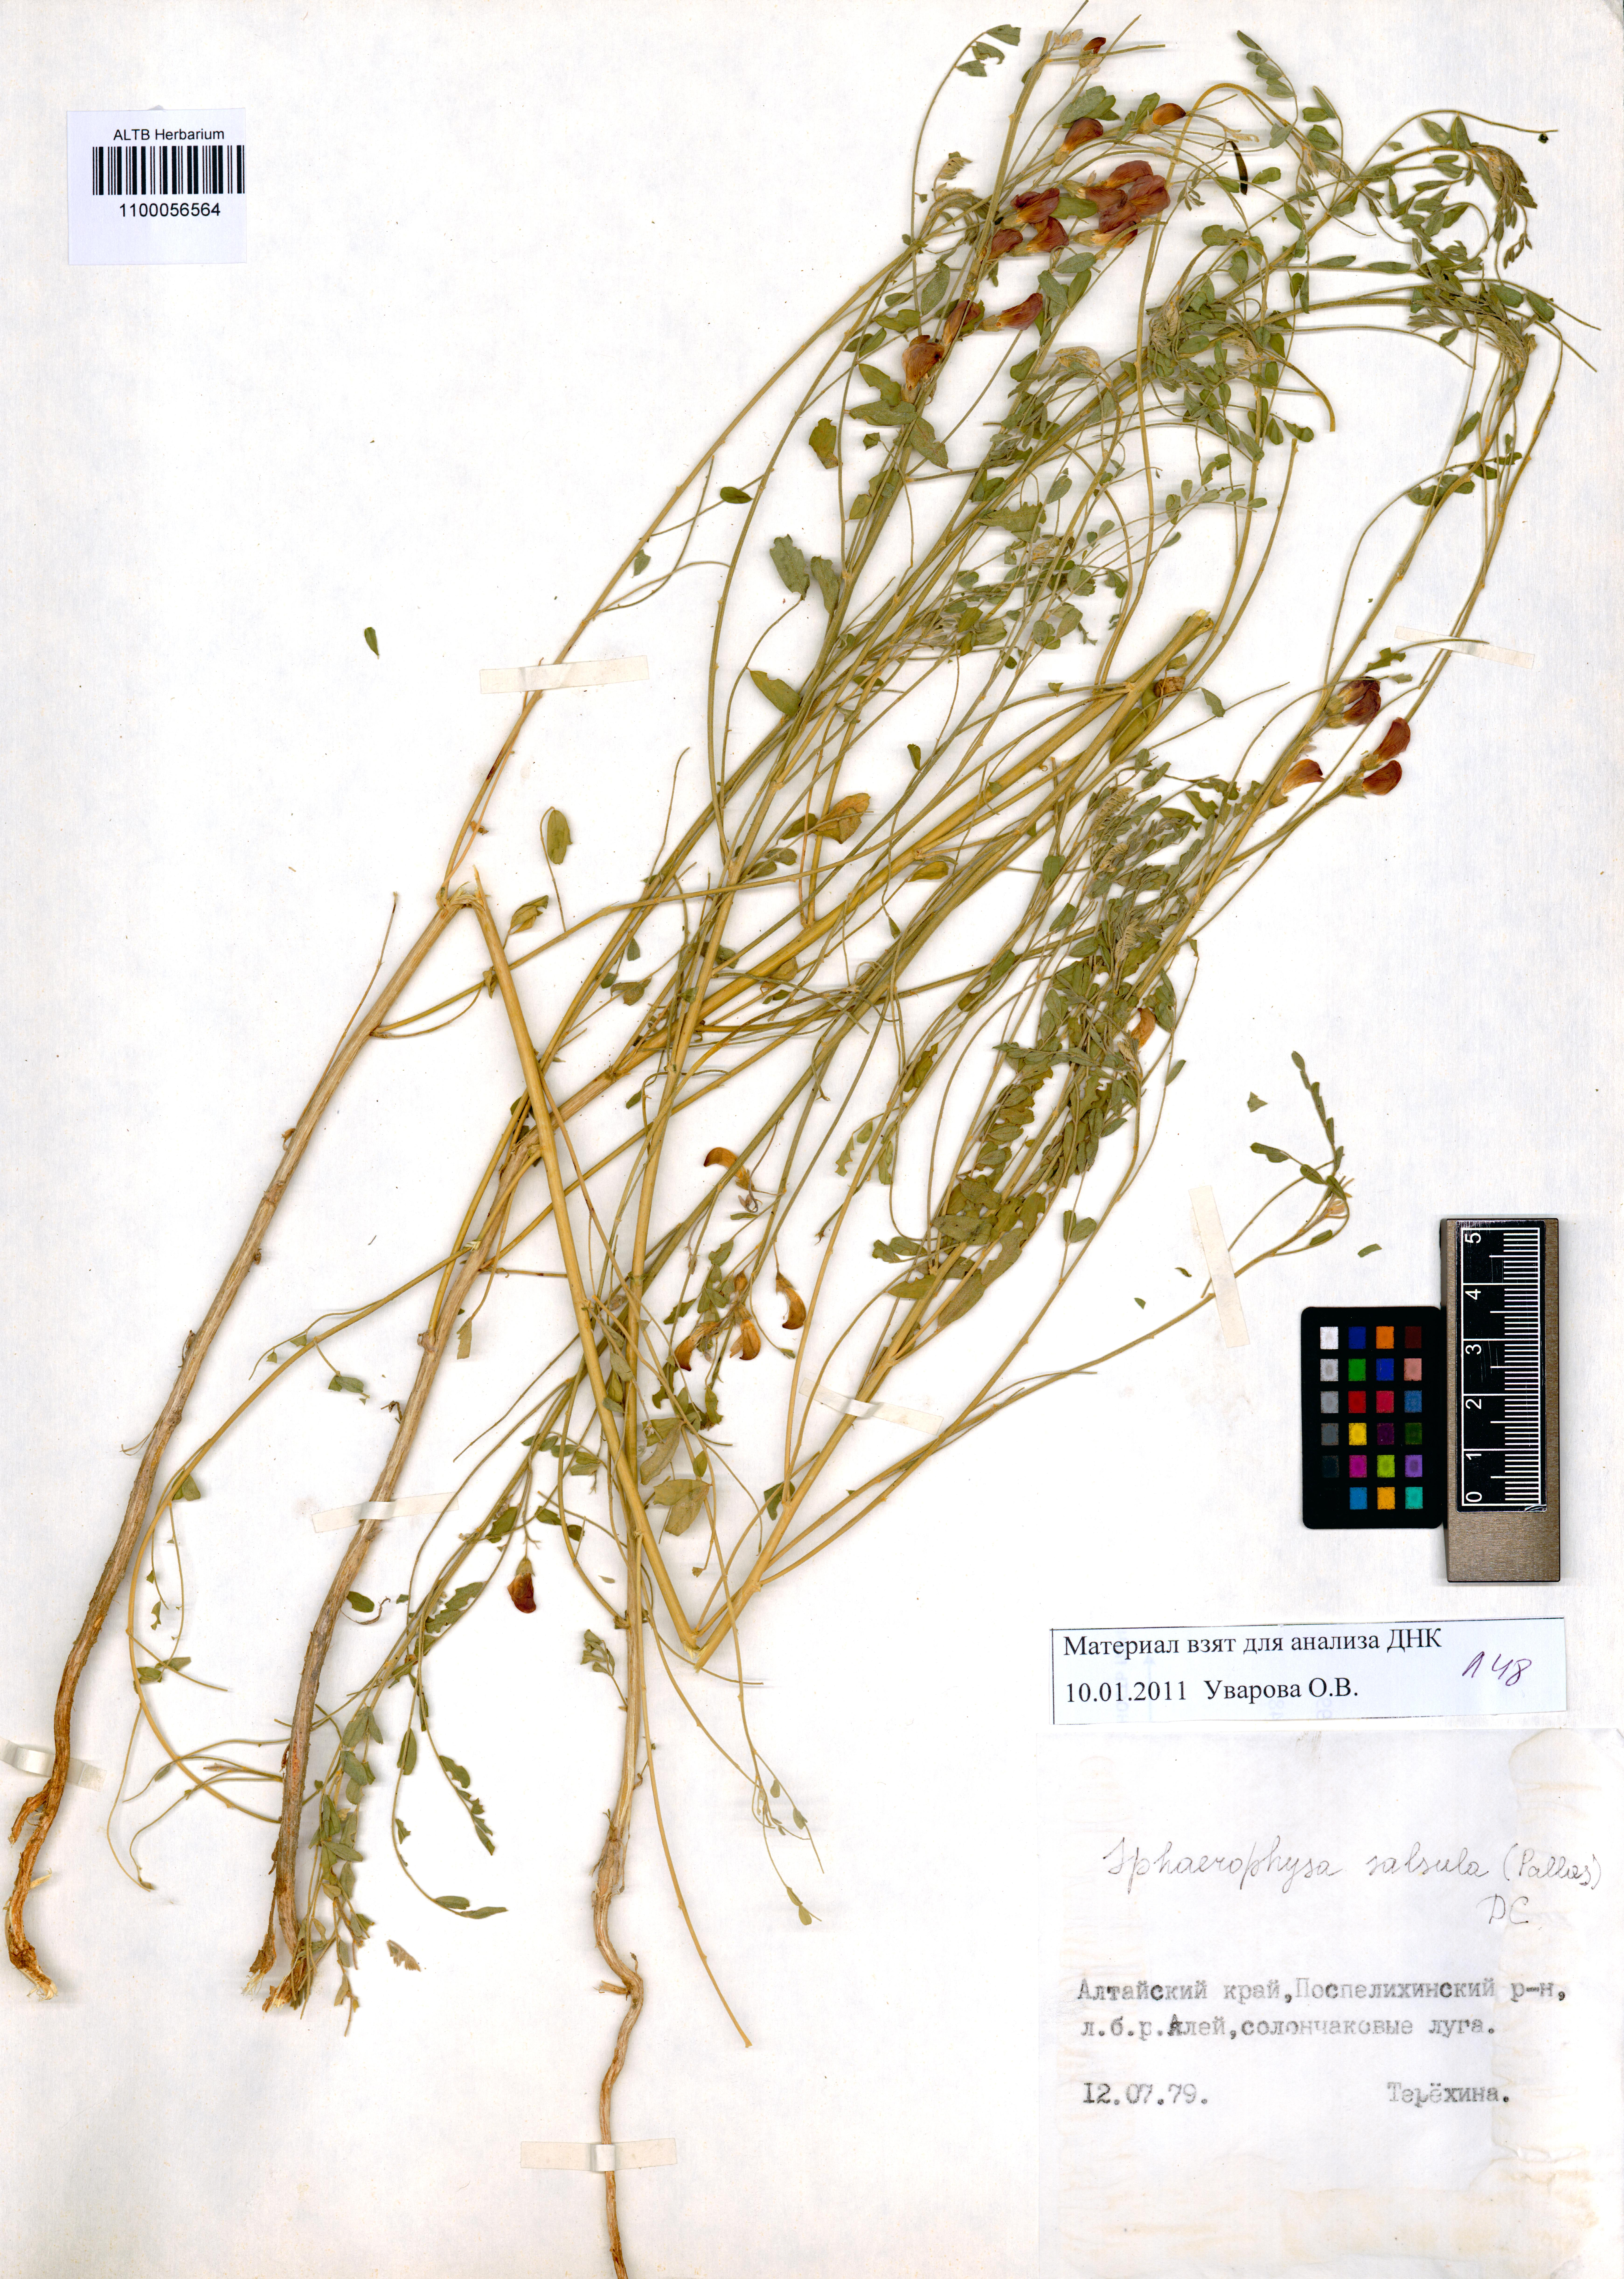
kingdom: Plantae
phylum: Tracheophyta
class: Magnoliopsida
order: Fabales
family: Fabaceae
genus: Sphaerophysa
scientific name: Sphaerophysa salsula
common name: Alkali swainsonpea
